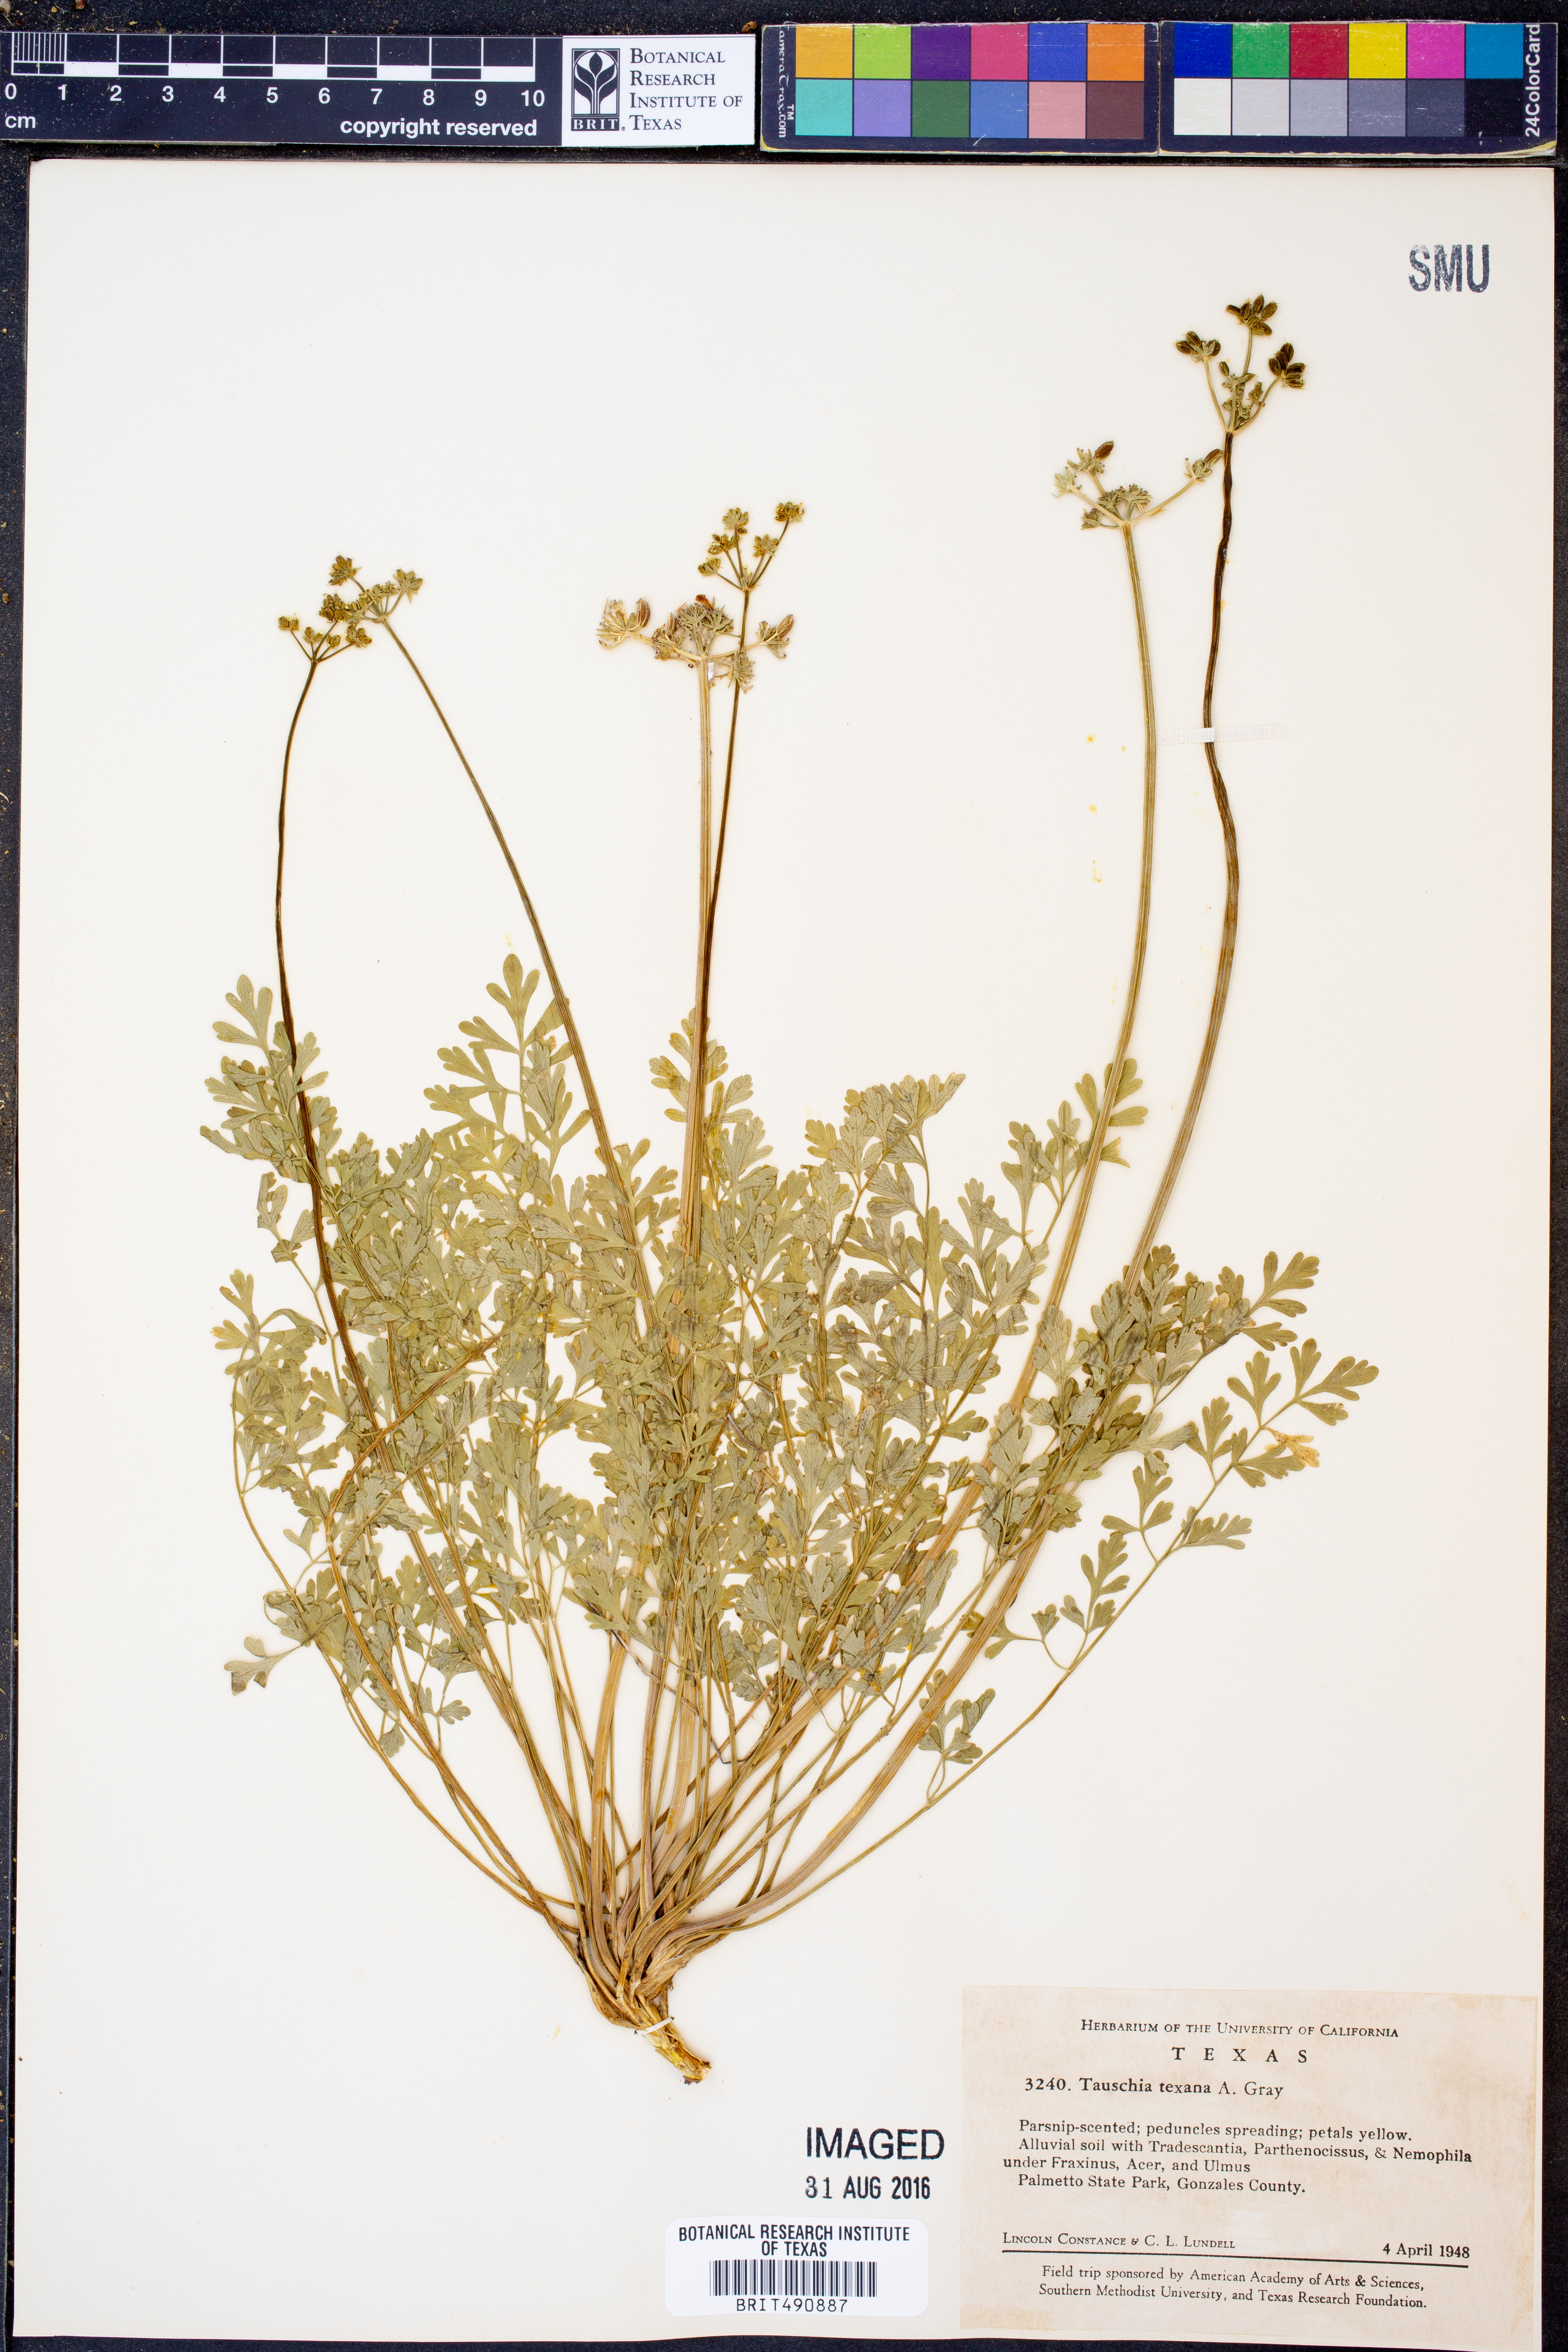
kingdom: Plantae
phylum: Tracheophyta
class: Magnoliopsida
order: Apiales
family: Apiaceae
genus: Tauschia
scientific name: Tauschia texana
